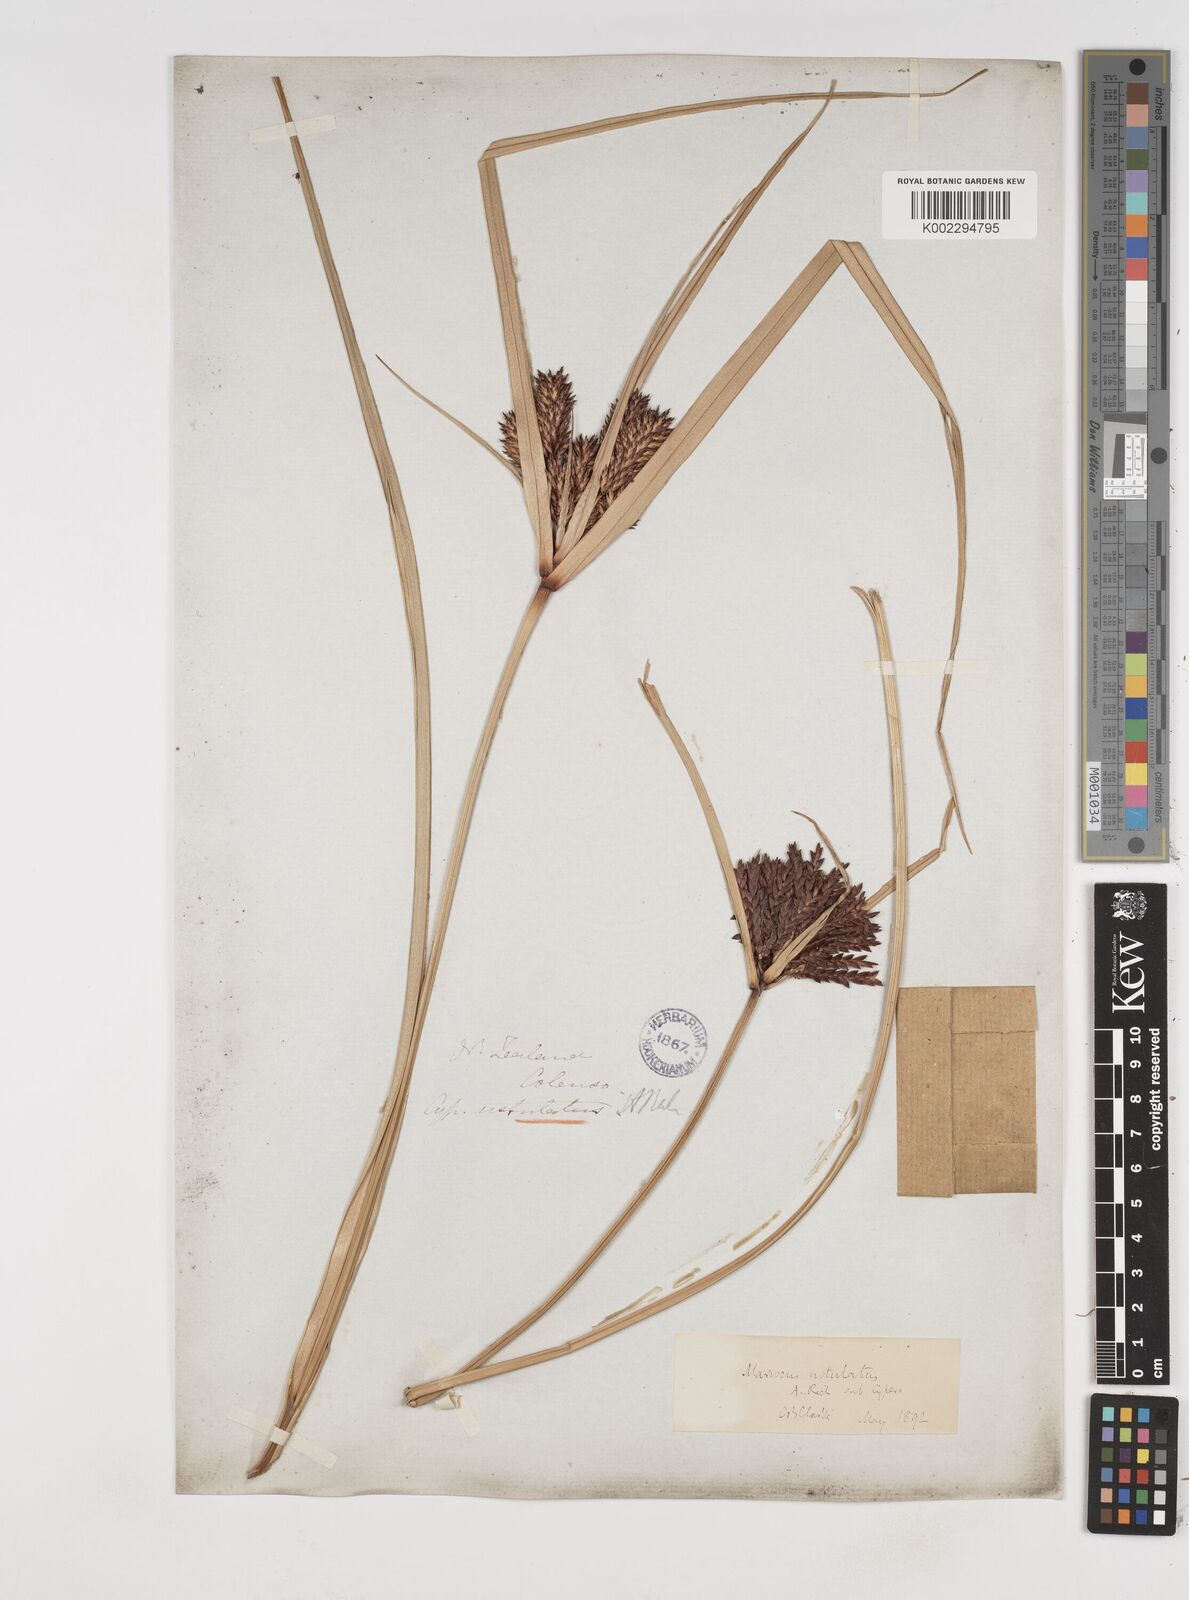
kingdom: Plantae
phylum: Tracheophyta
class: Liliopsida
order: Poales
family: Cyperaceae
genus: Cyperus
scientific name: Cyperus ustulatus
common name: Giant umbrella-sedge
